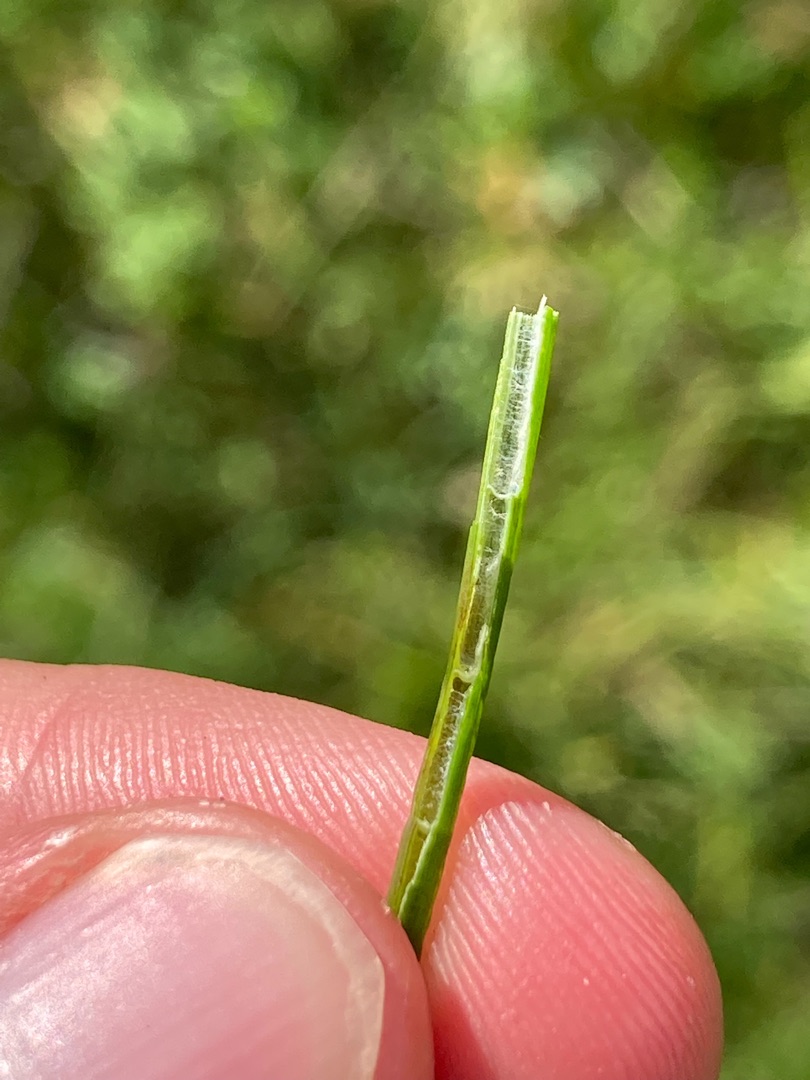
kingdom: Plantae
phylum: Tracheophyta
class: Liliopsida
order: Poales
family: Juncaceae
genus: Juncus
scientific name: Juncus subnodulosus
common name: Butblomstret siv
